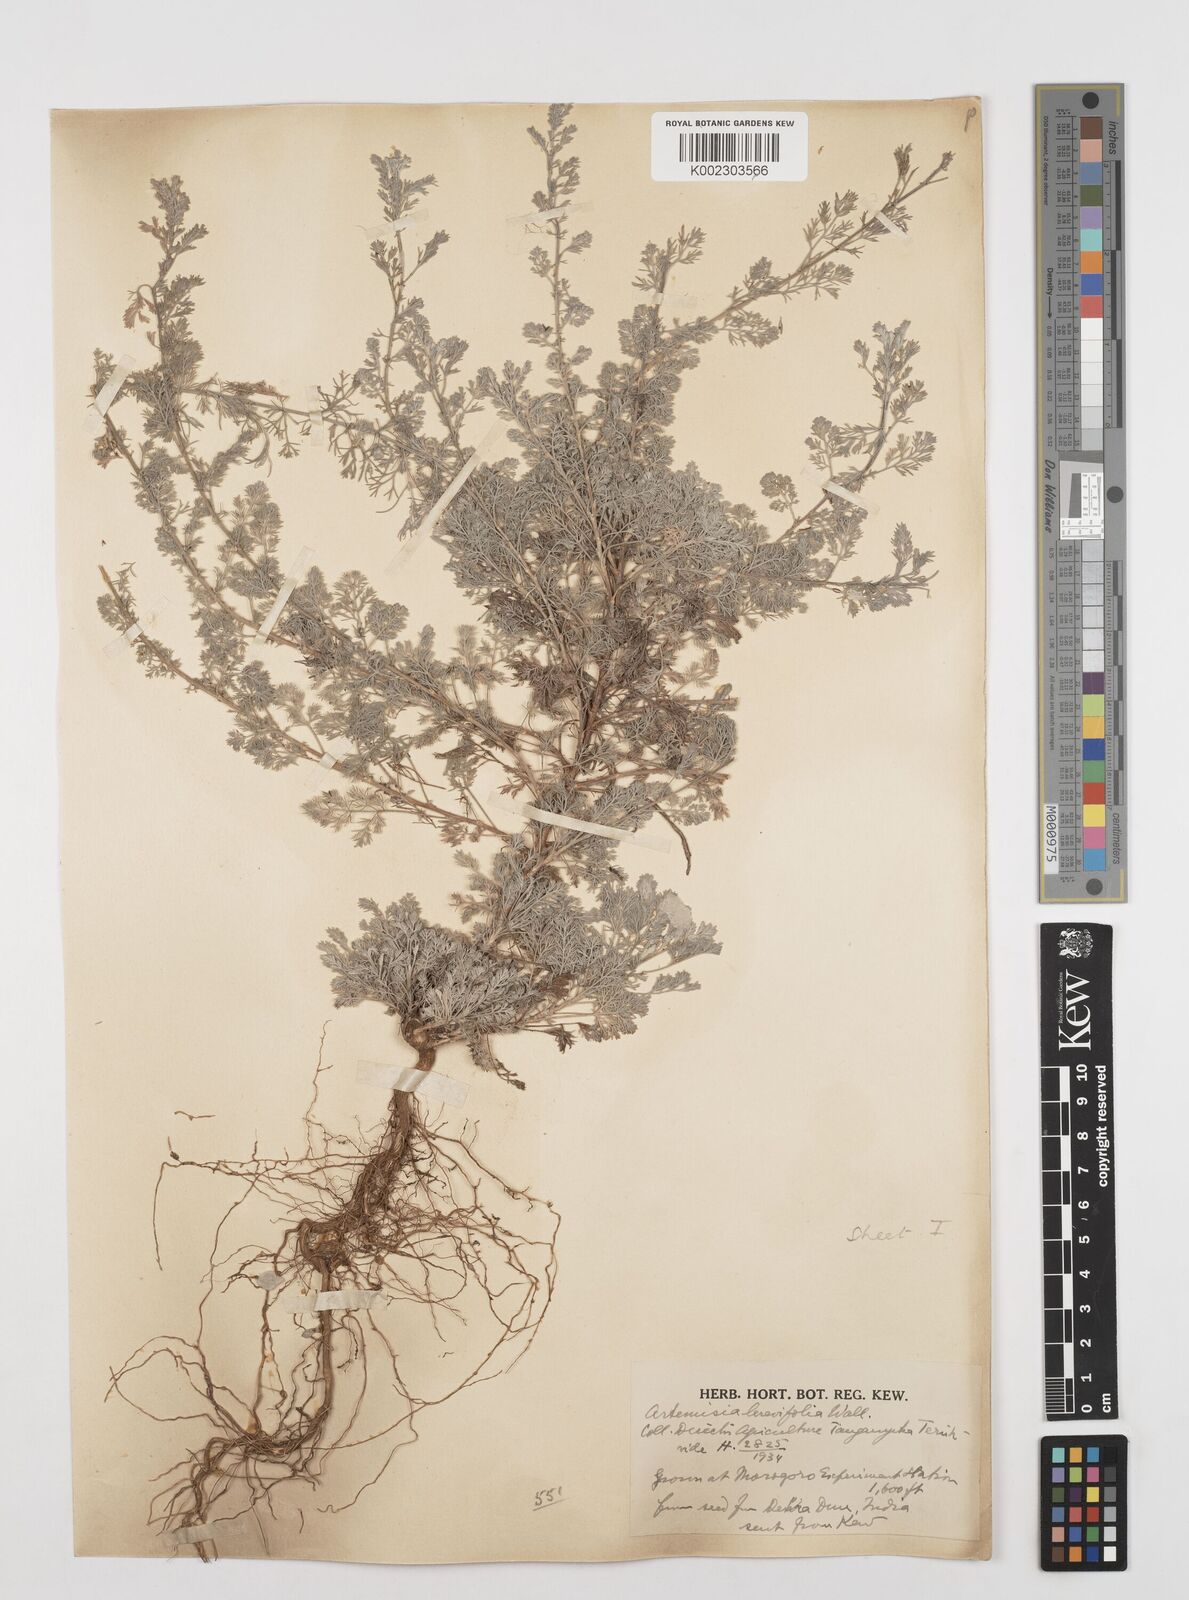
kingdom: Plantae
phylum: Tracheophyta
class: Magnoliopsida
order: Asterales
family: Asteraceae
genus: Artemisia
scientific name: Artemisia brevifolia
